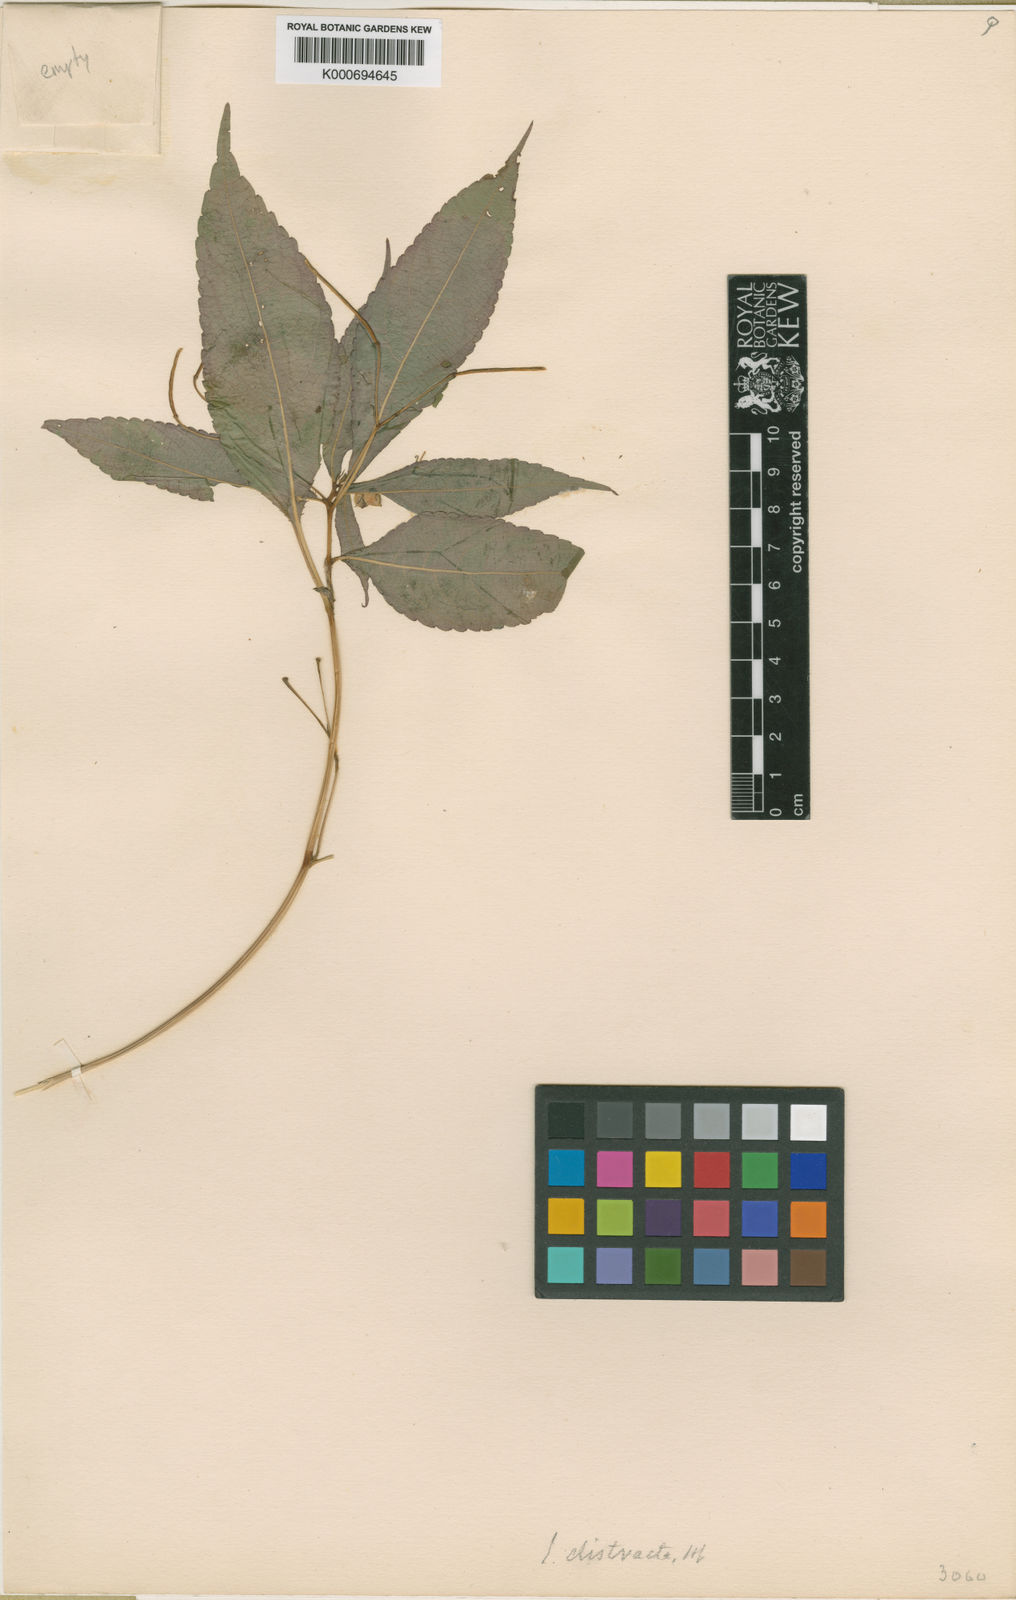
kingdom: Plantae
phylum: Tracheophyta
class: Magnoliopsida
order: Ericales
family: Balsaminaceae
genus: Impatiens
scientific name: Impatiens distracta
